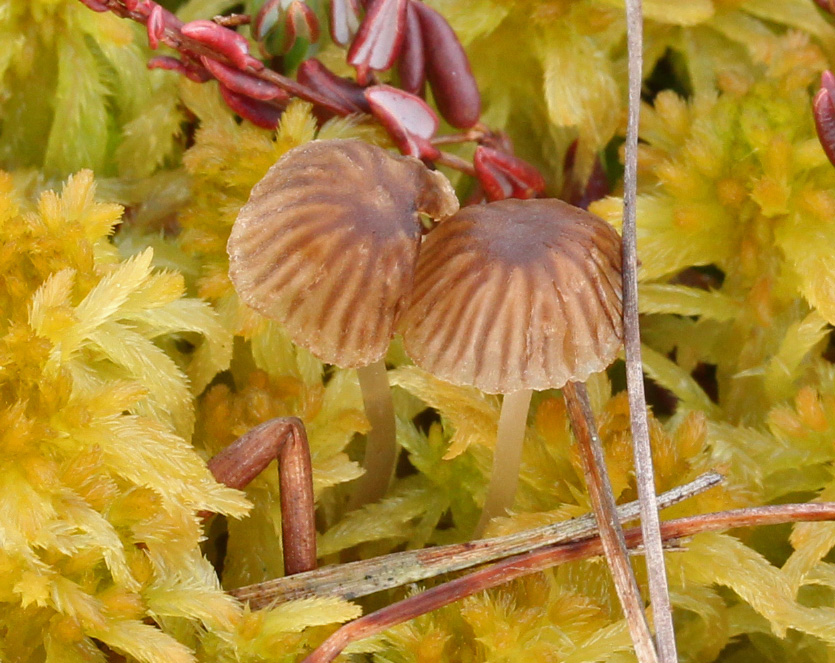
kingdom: Fungi
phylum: Basidiomycota
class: Agaricomycetes
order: Agaricales
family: Mycenaceae
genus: Mycena
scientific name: Mycena concolor
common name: tørvemos-huesvamp
